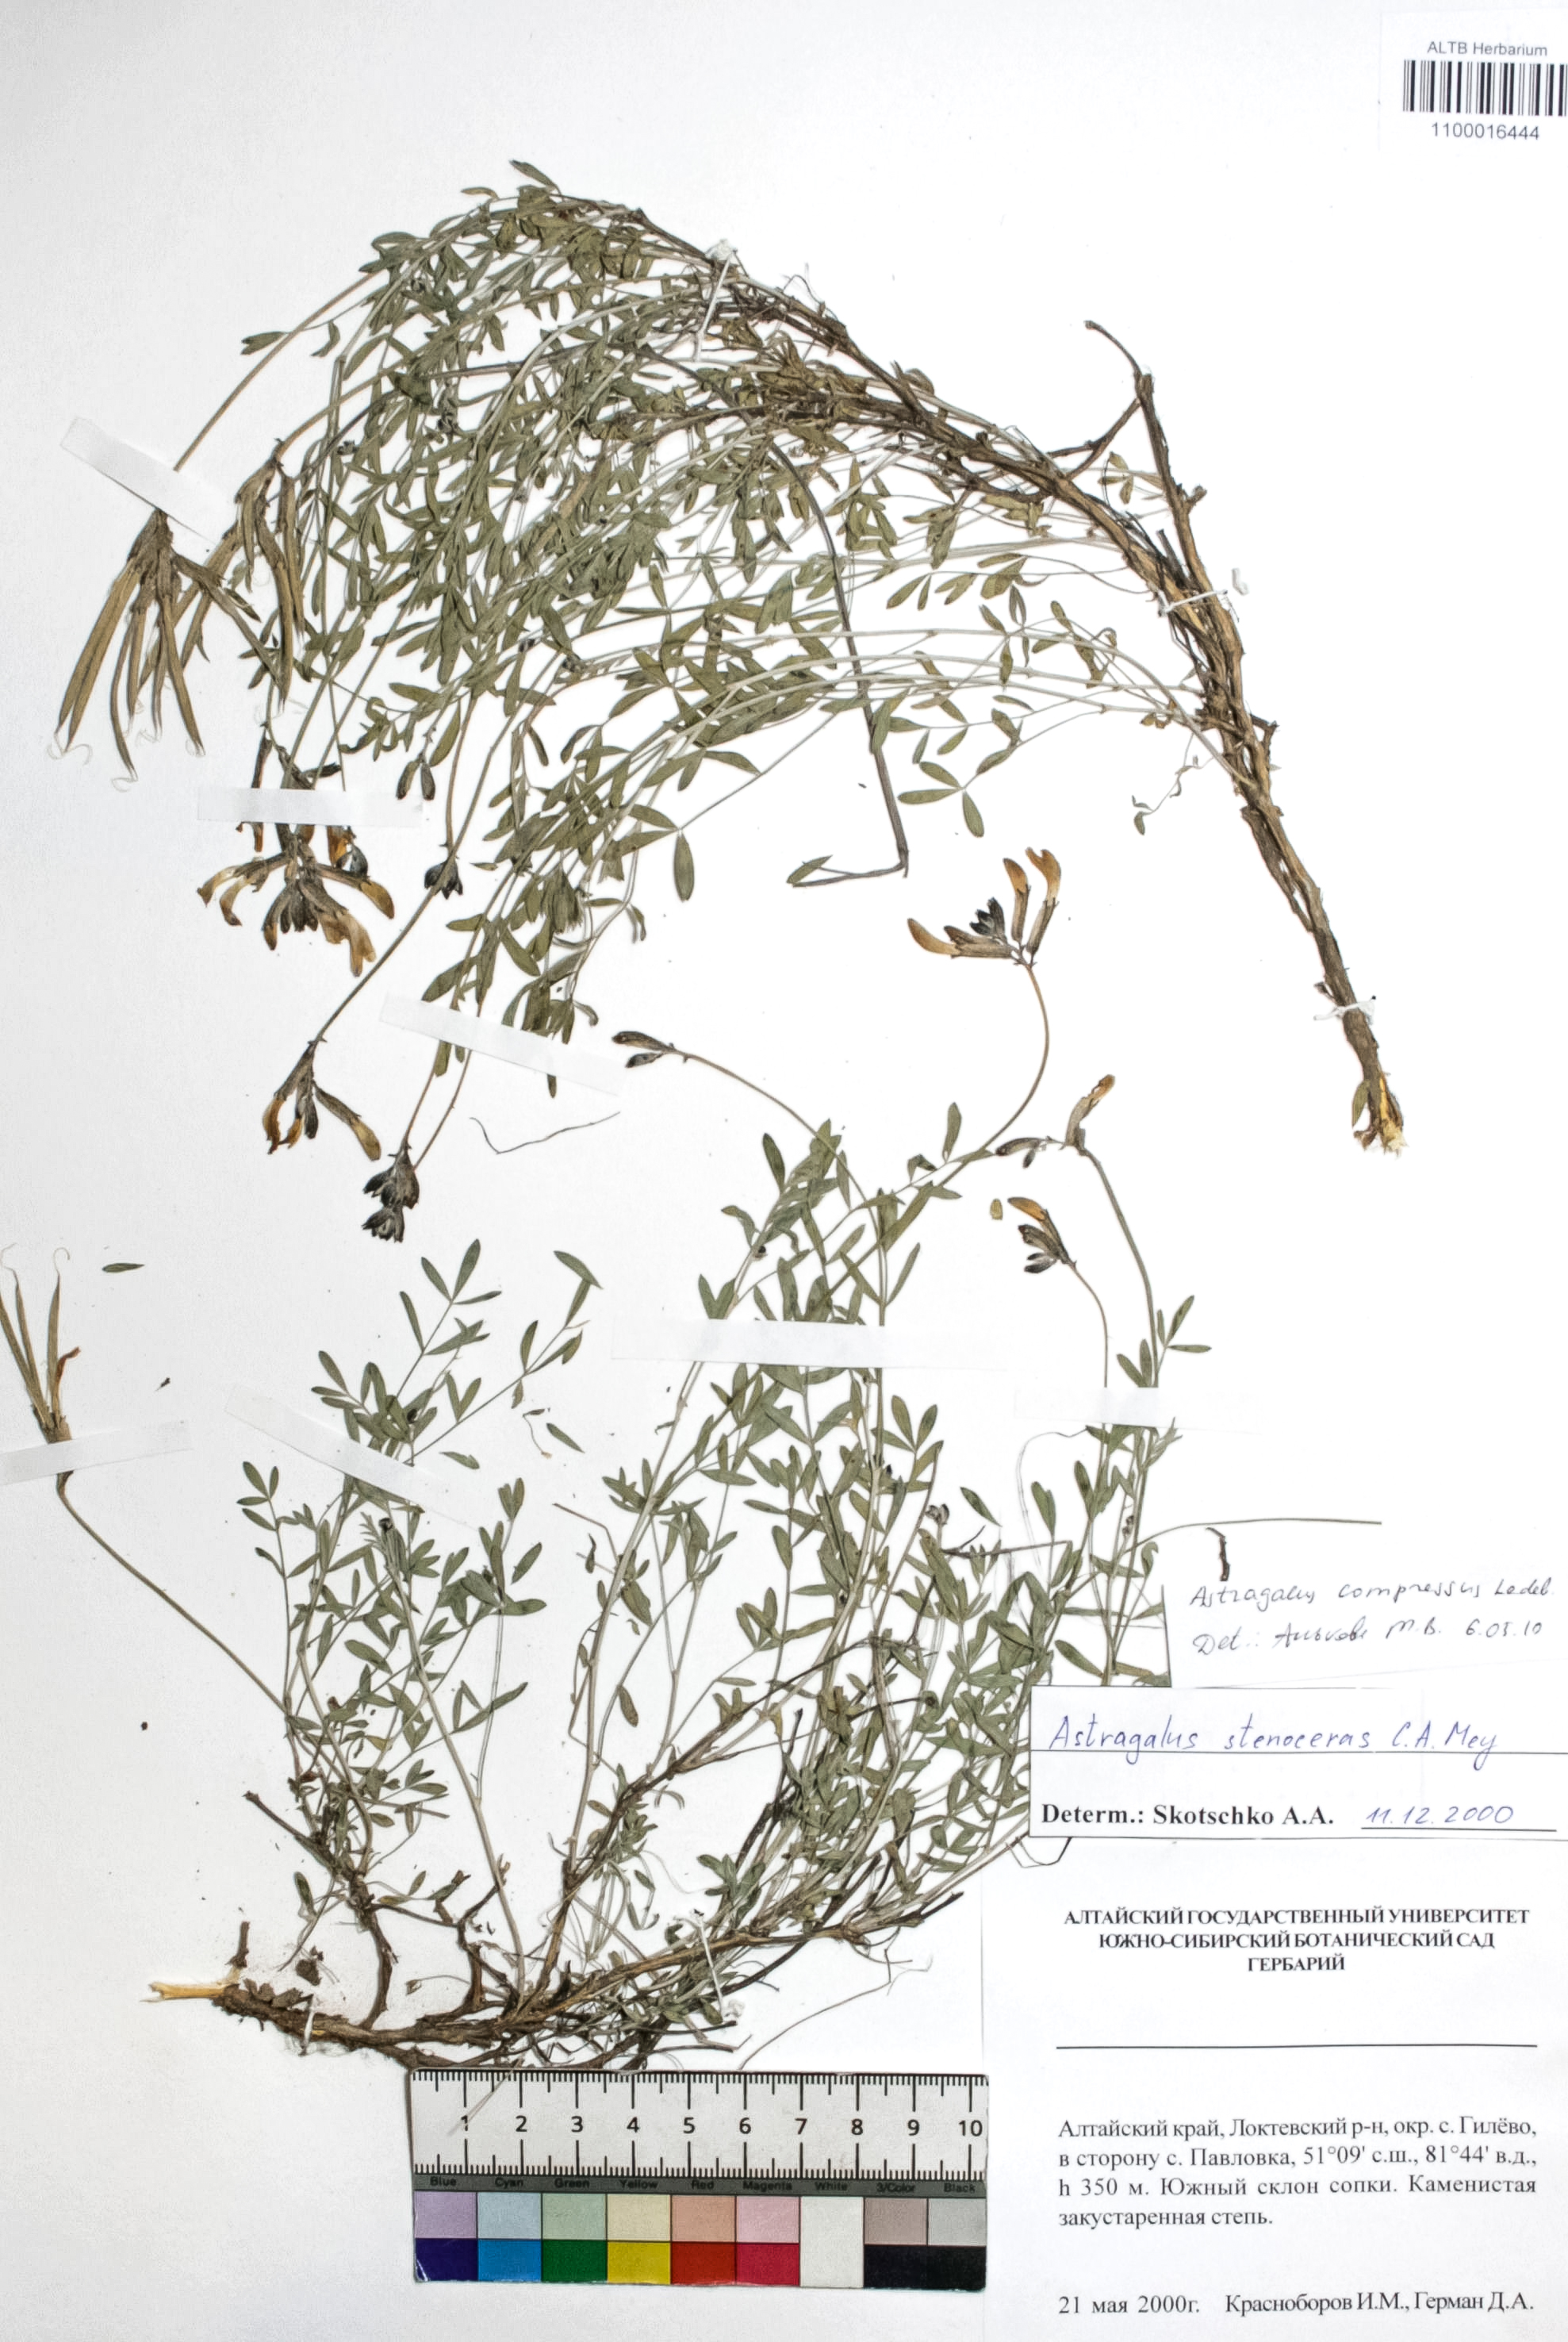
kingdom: Plantae
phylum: Tracheophyta
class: Magnoliopsida
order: Fabales
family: Fabaceae
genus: Astragalus
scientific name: Astragalus compressus
